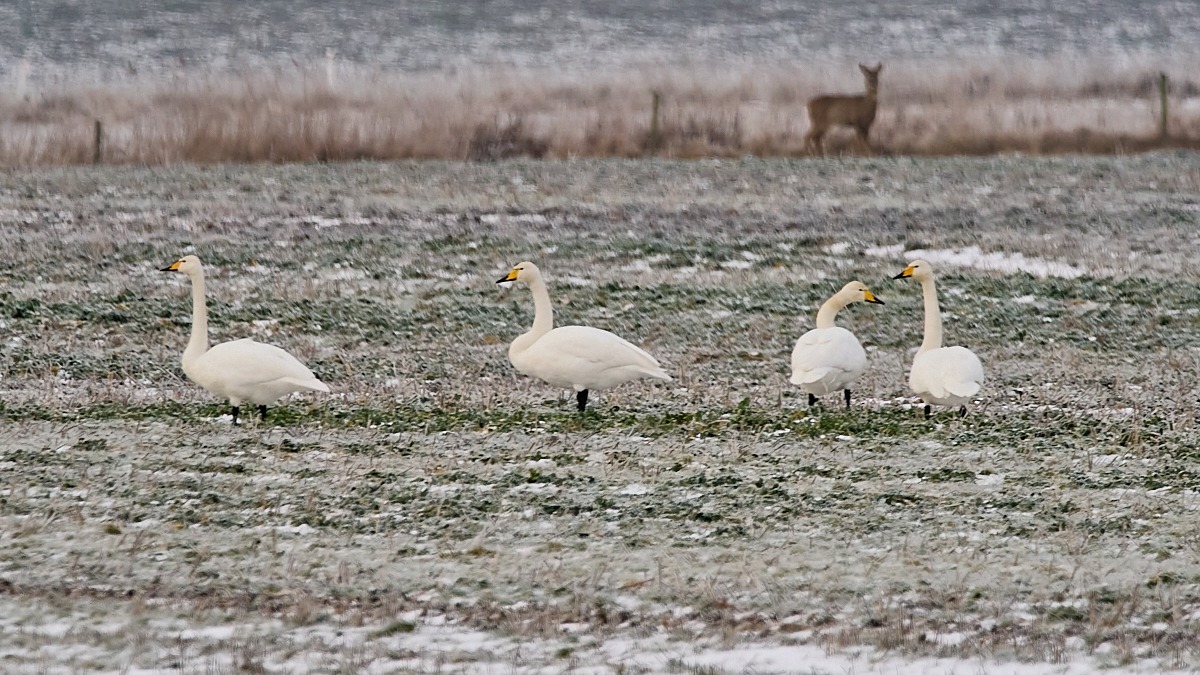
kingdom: Animalia
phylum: Chordata
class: Aves
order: Anseriformes
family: Anatidae
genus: Cygnus
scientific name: Cygnus cygnus
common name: Sangsvane
